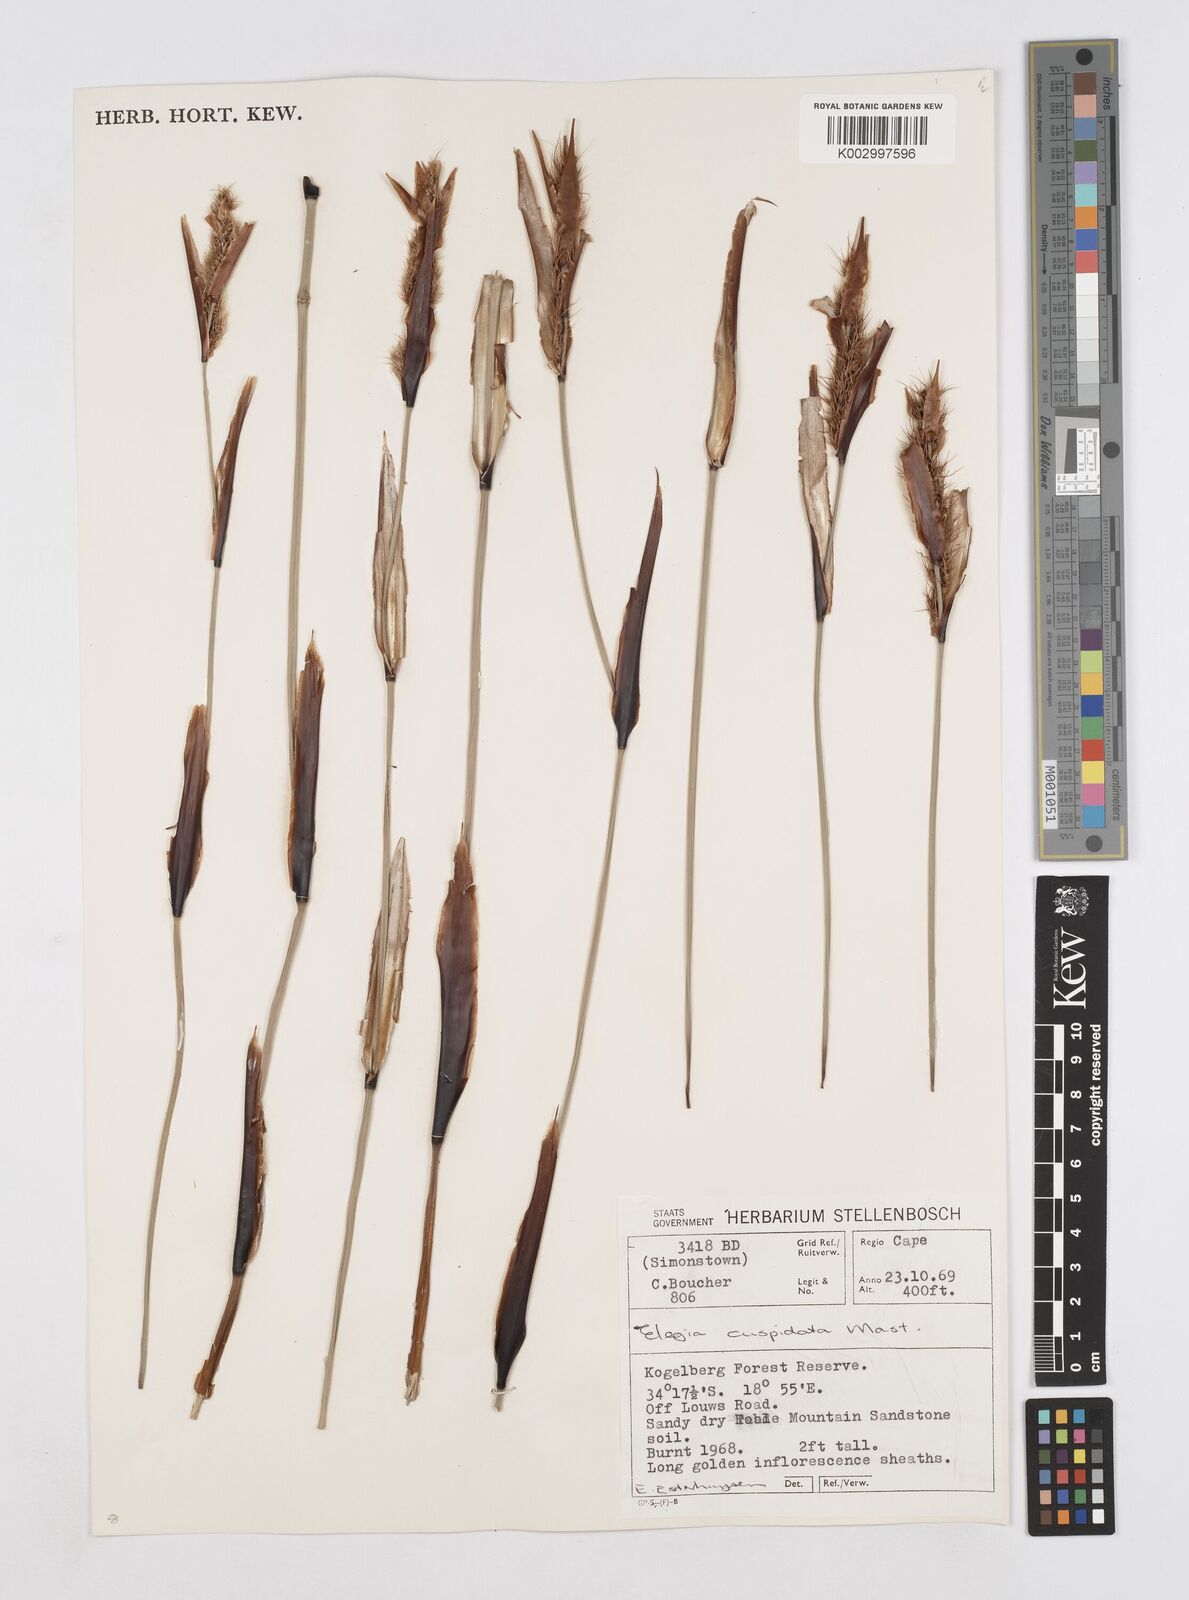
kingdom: Plantae
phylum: Tracheophyta
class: Liliopsida
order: Poales
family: Restionaceae
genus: Elegia
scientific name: Elegia cuspidata
